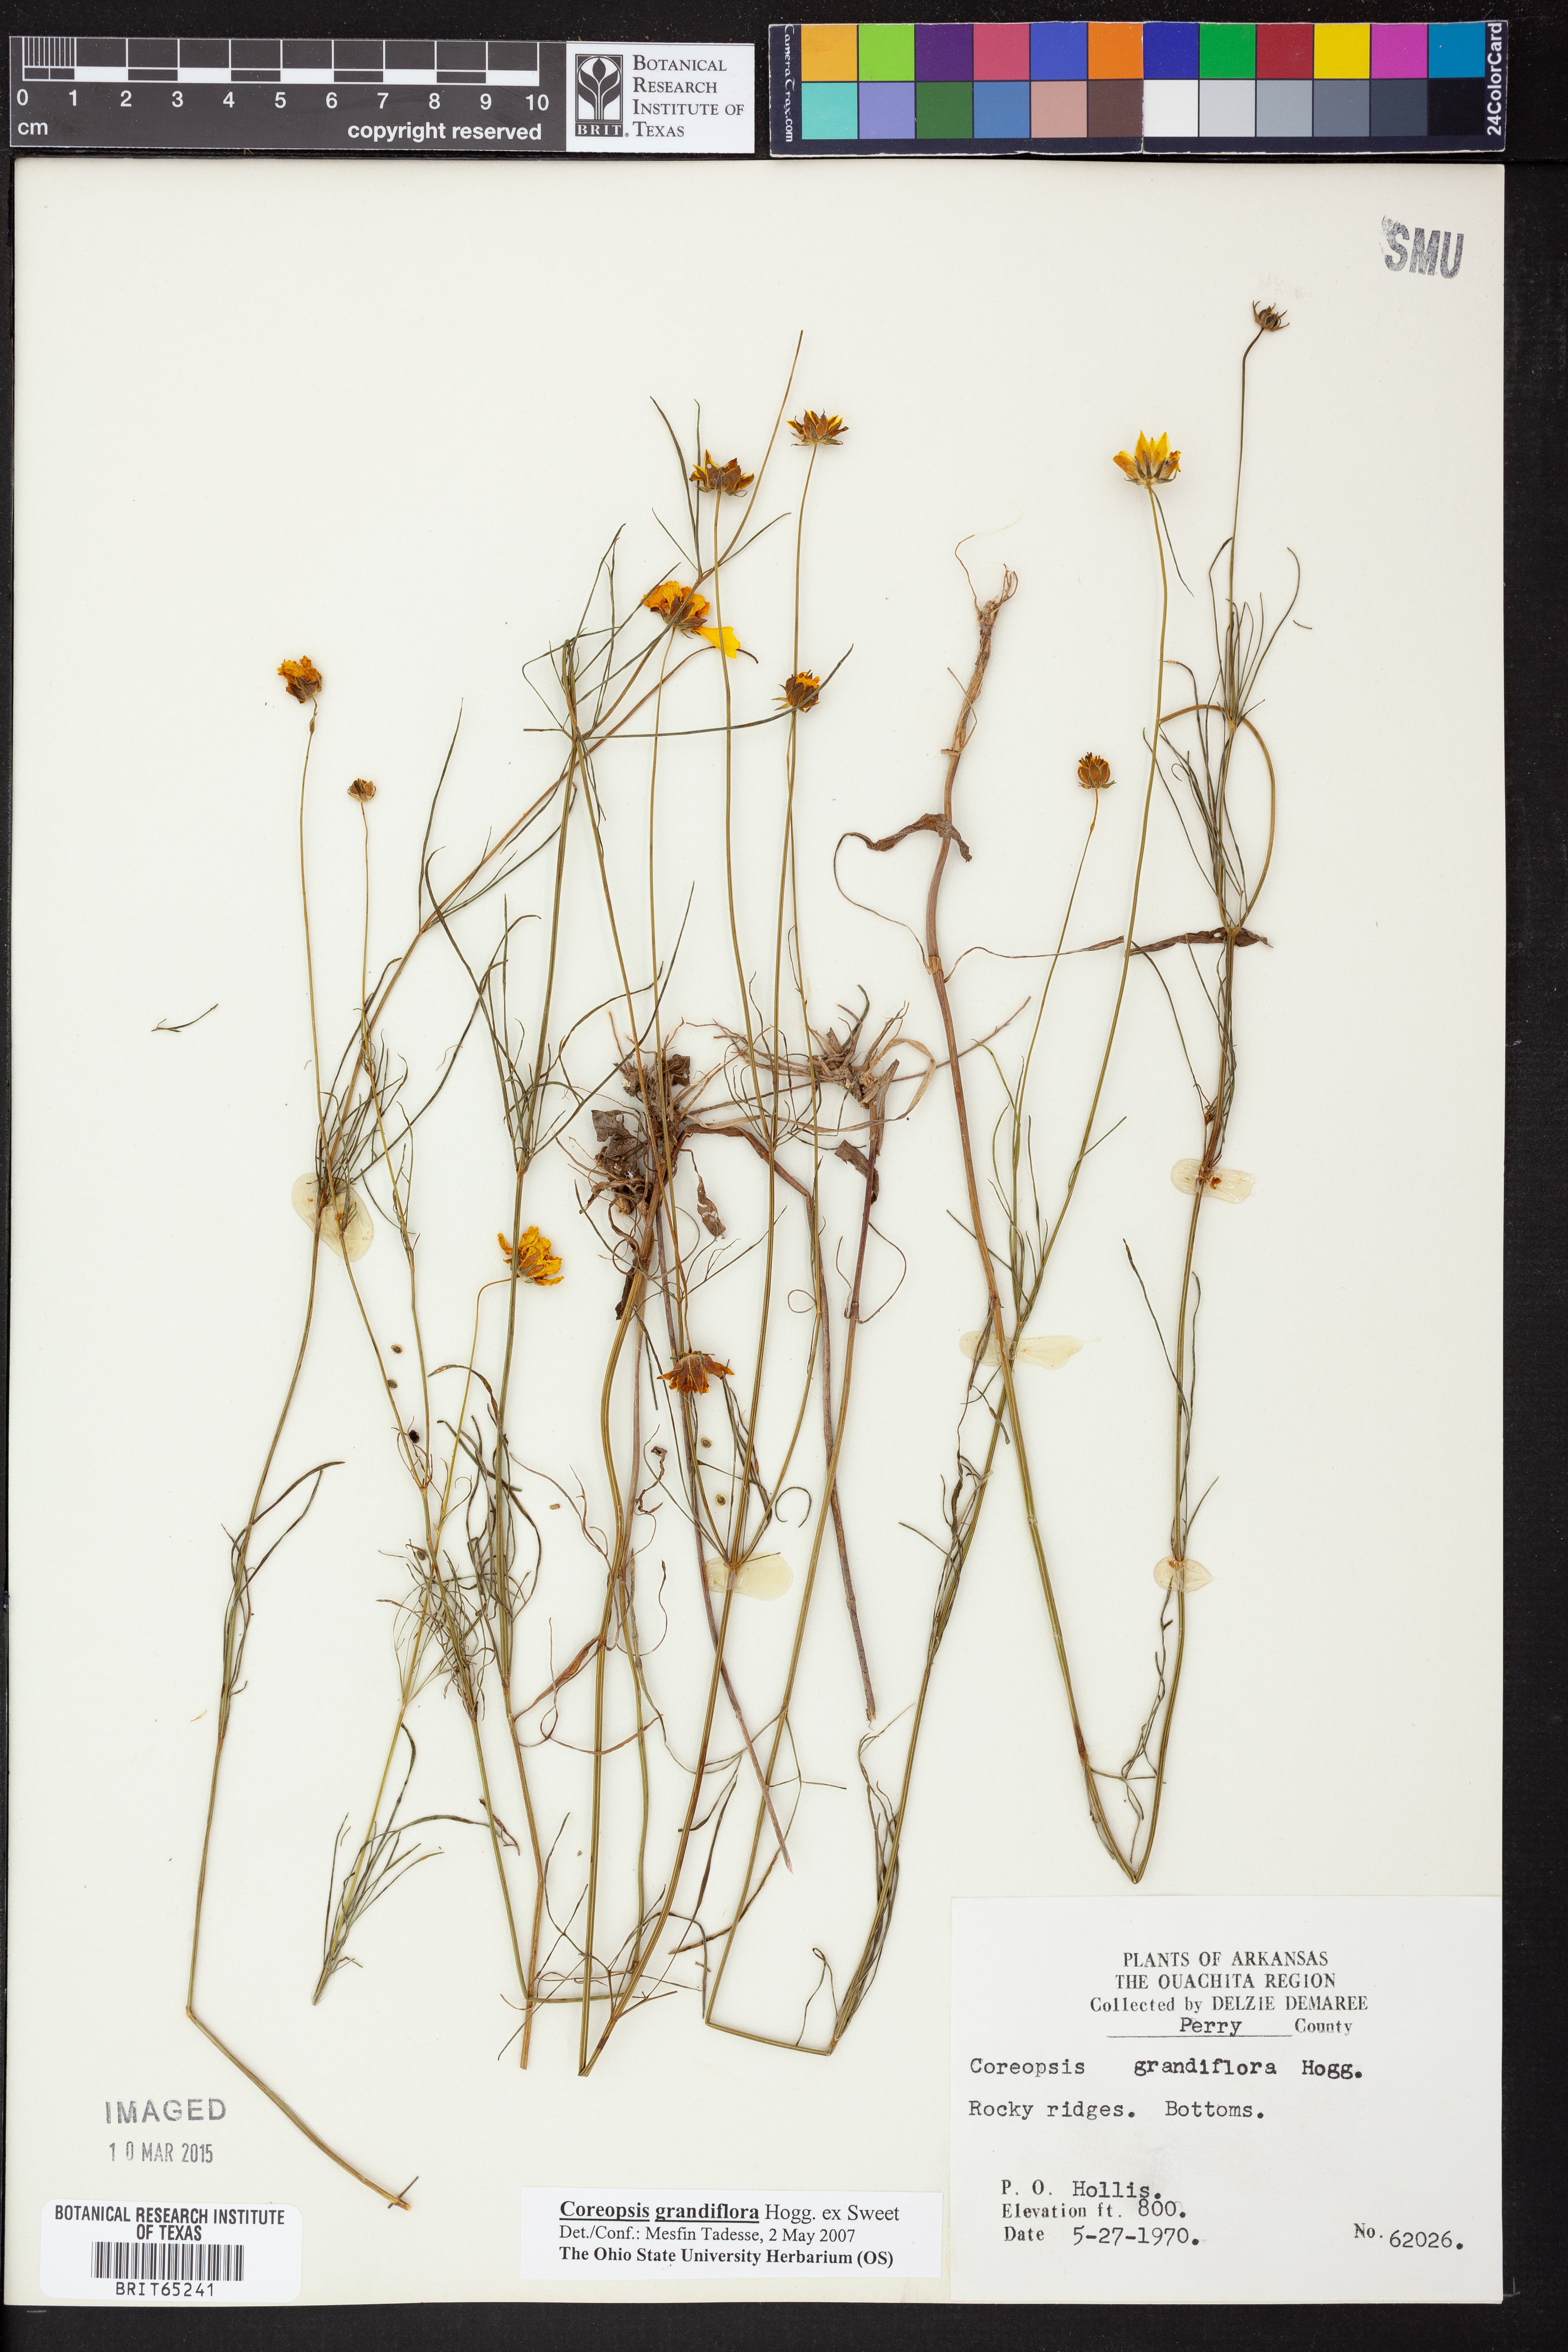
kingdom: Plantae
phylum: Tracheophyta
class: Magnoliopsida
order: Asterales
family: Asteraceae
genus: Coreopsis
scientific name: Coreopsis grandiflora
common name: Large-flowered tickseed
